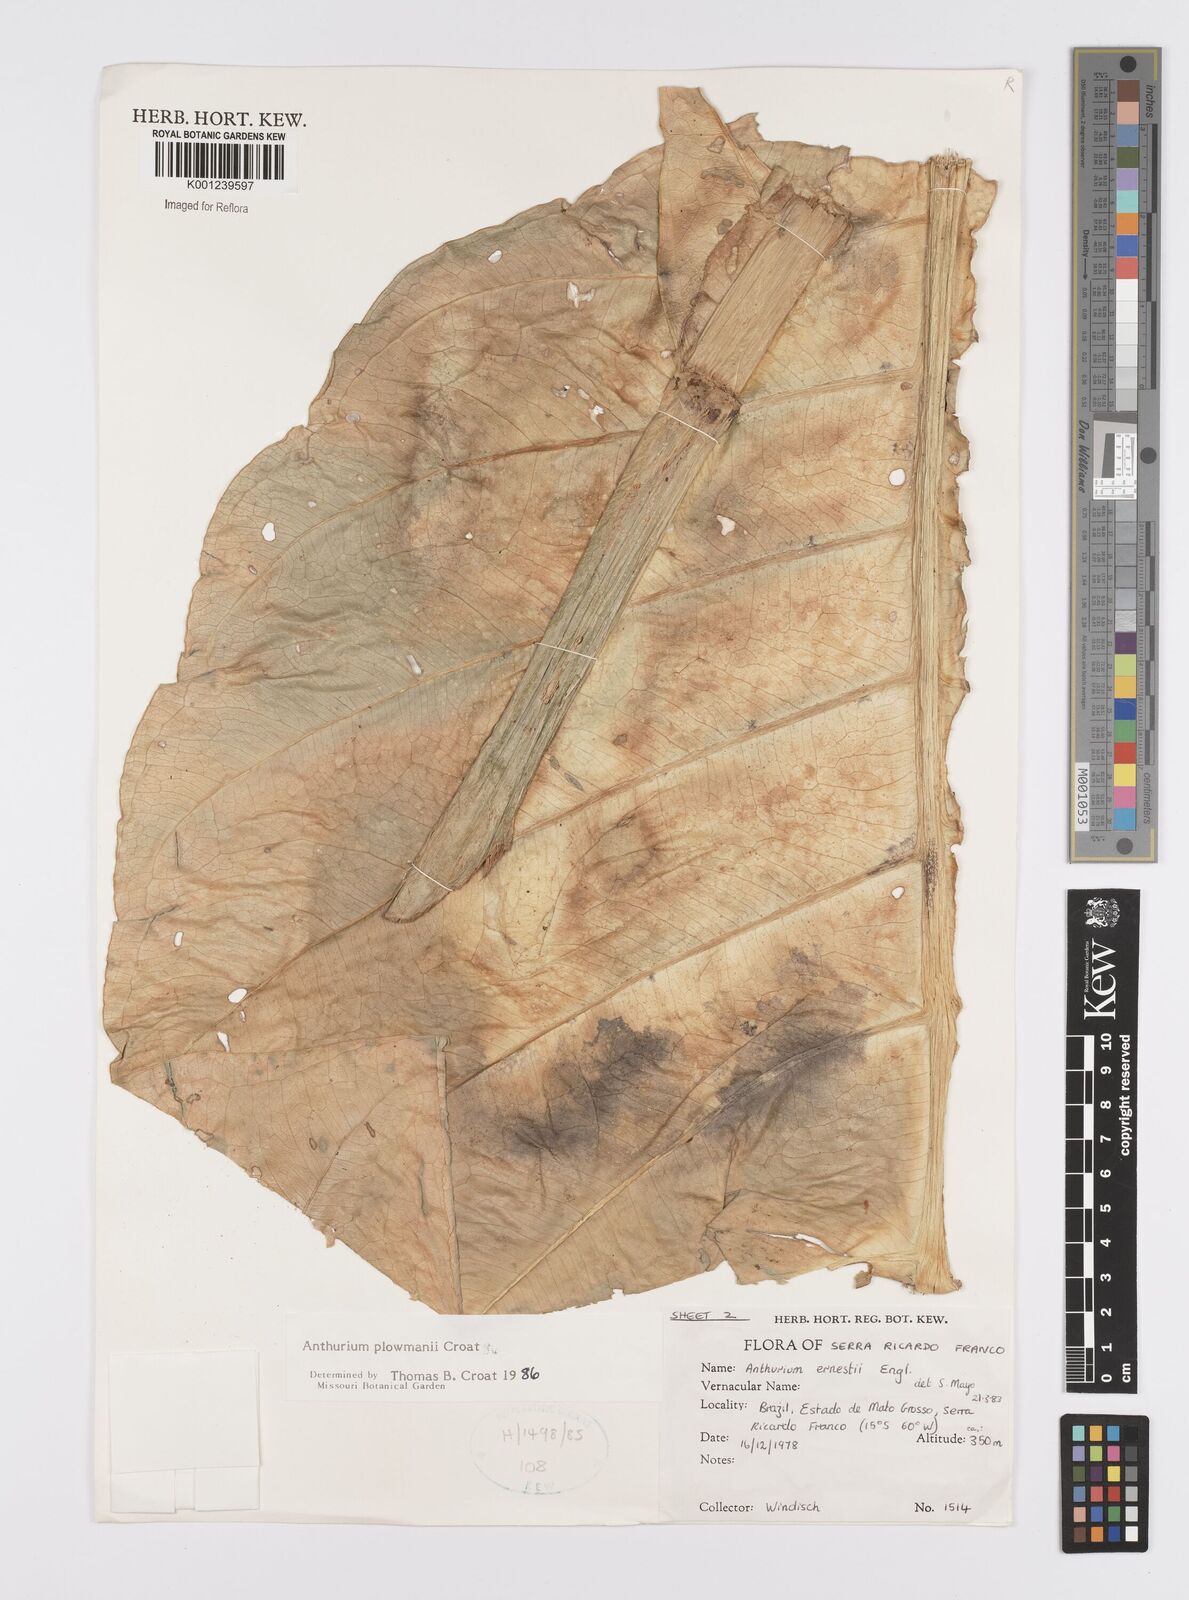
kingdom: Plantae
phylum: Tracheophyta
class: Liliopsida
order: Alismatales
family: Araceae
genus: Anthurium
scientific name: Anthurium plowmanii
